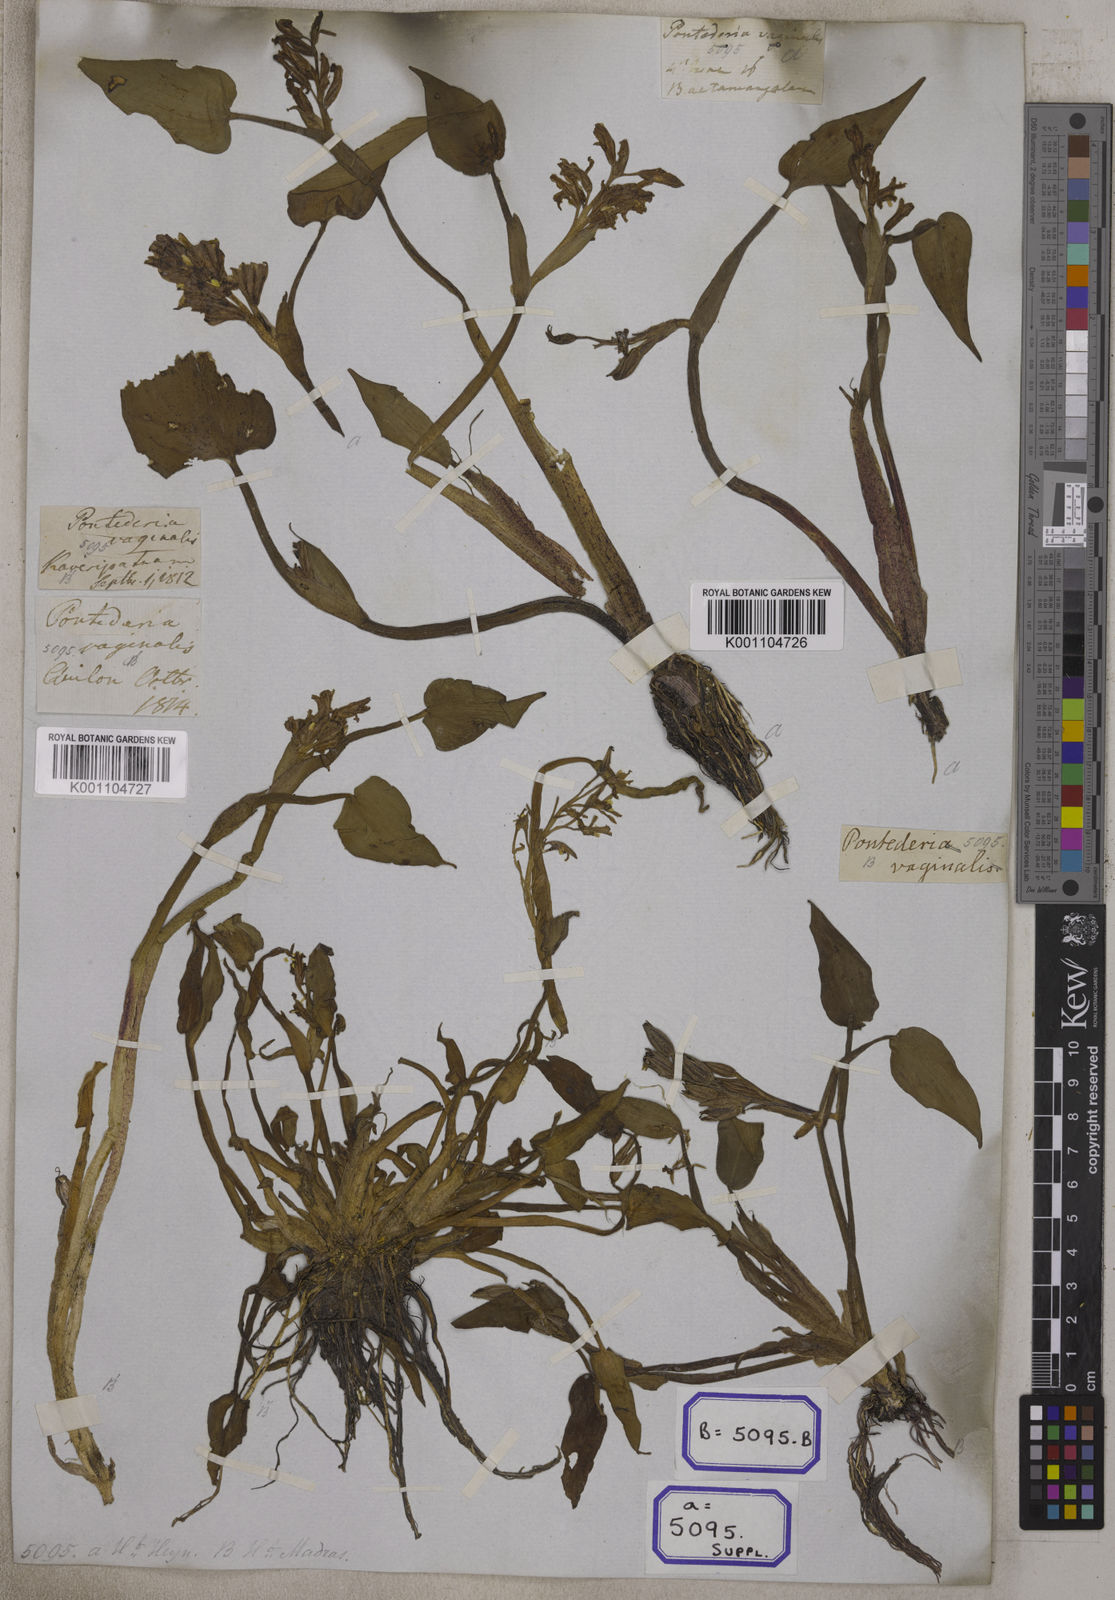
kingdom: Plantae
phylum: Tracheophyta
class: Liliopsida
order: Commelinales
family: Pontederiaceae
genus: Pontederia
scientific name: Pontederia
